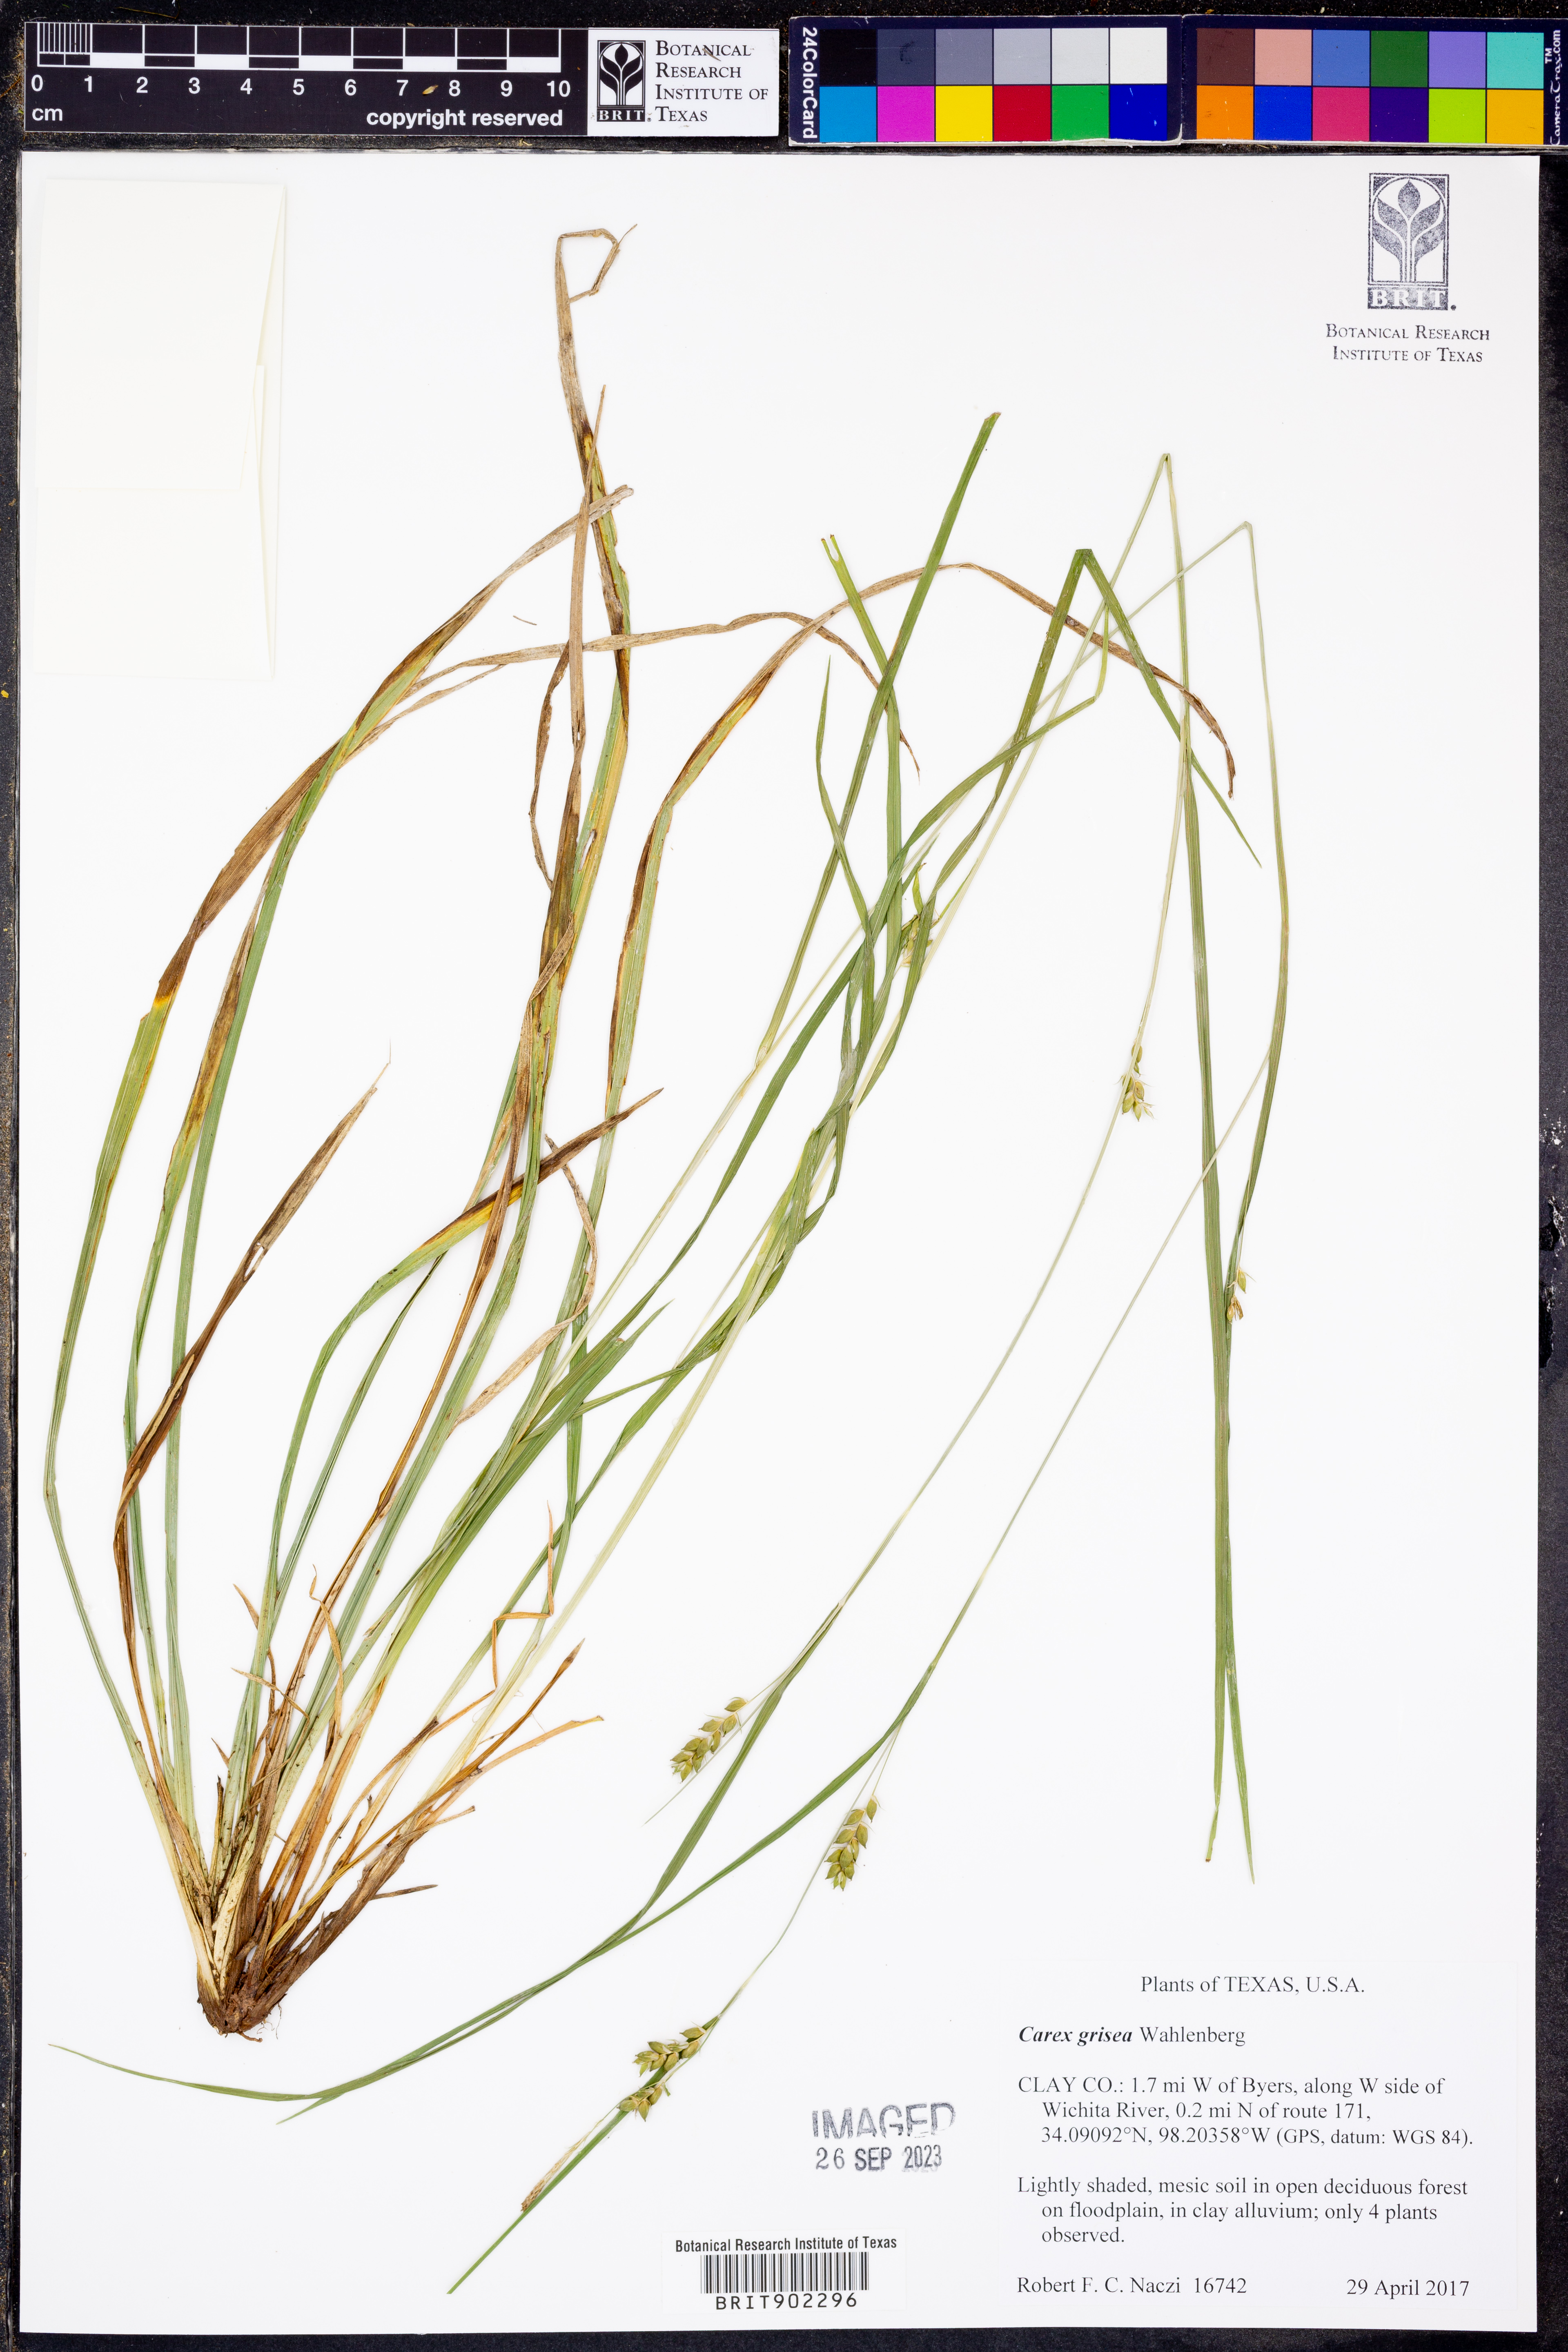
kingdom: Plantae
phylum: Tracheophyta
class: Liliopsida
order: Poales
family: Cyperaceae
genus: Carex
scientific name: Carex grisea
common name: Eastern narrow-leaved sedge
